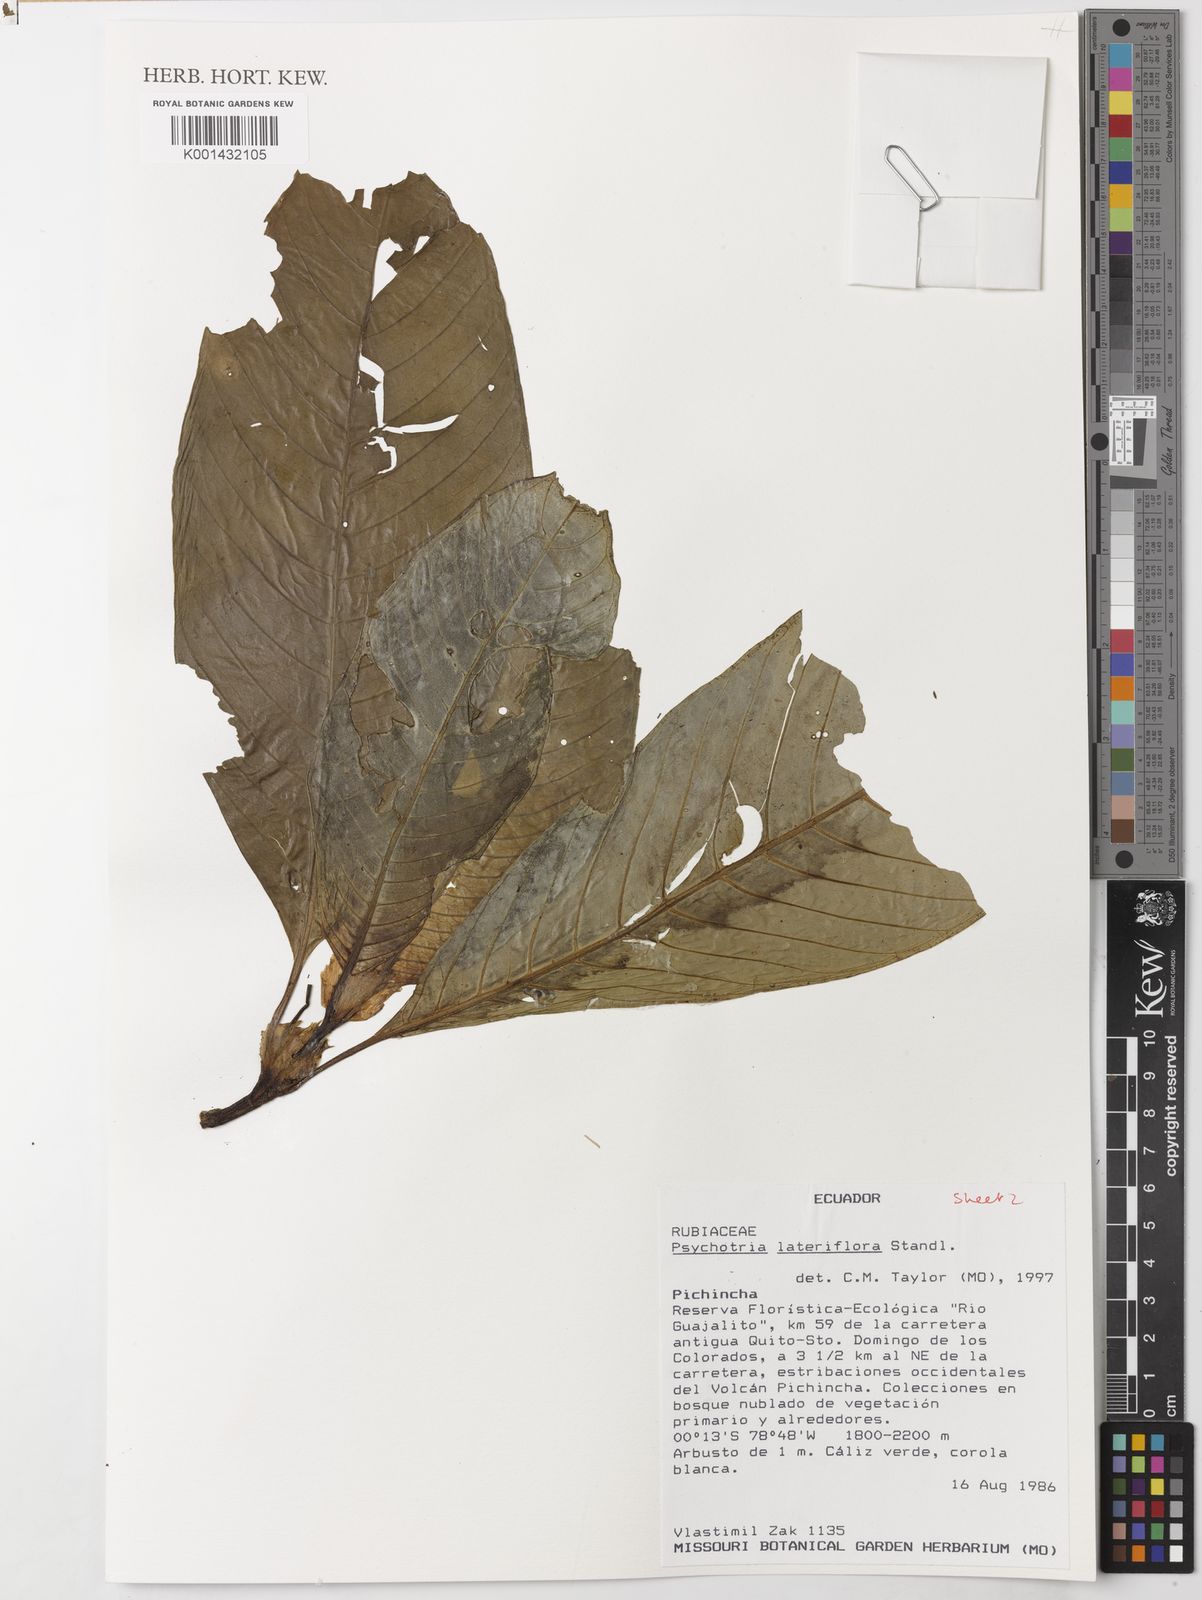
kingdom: Plantae
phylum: Tracheophyta
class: Magnoliopsida
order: Gentianales
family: Rubiaceae
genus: Notopleura
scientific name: Notopleura lateriflora
